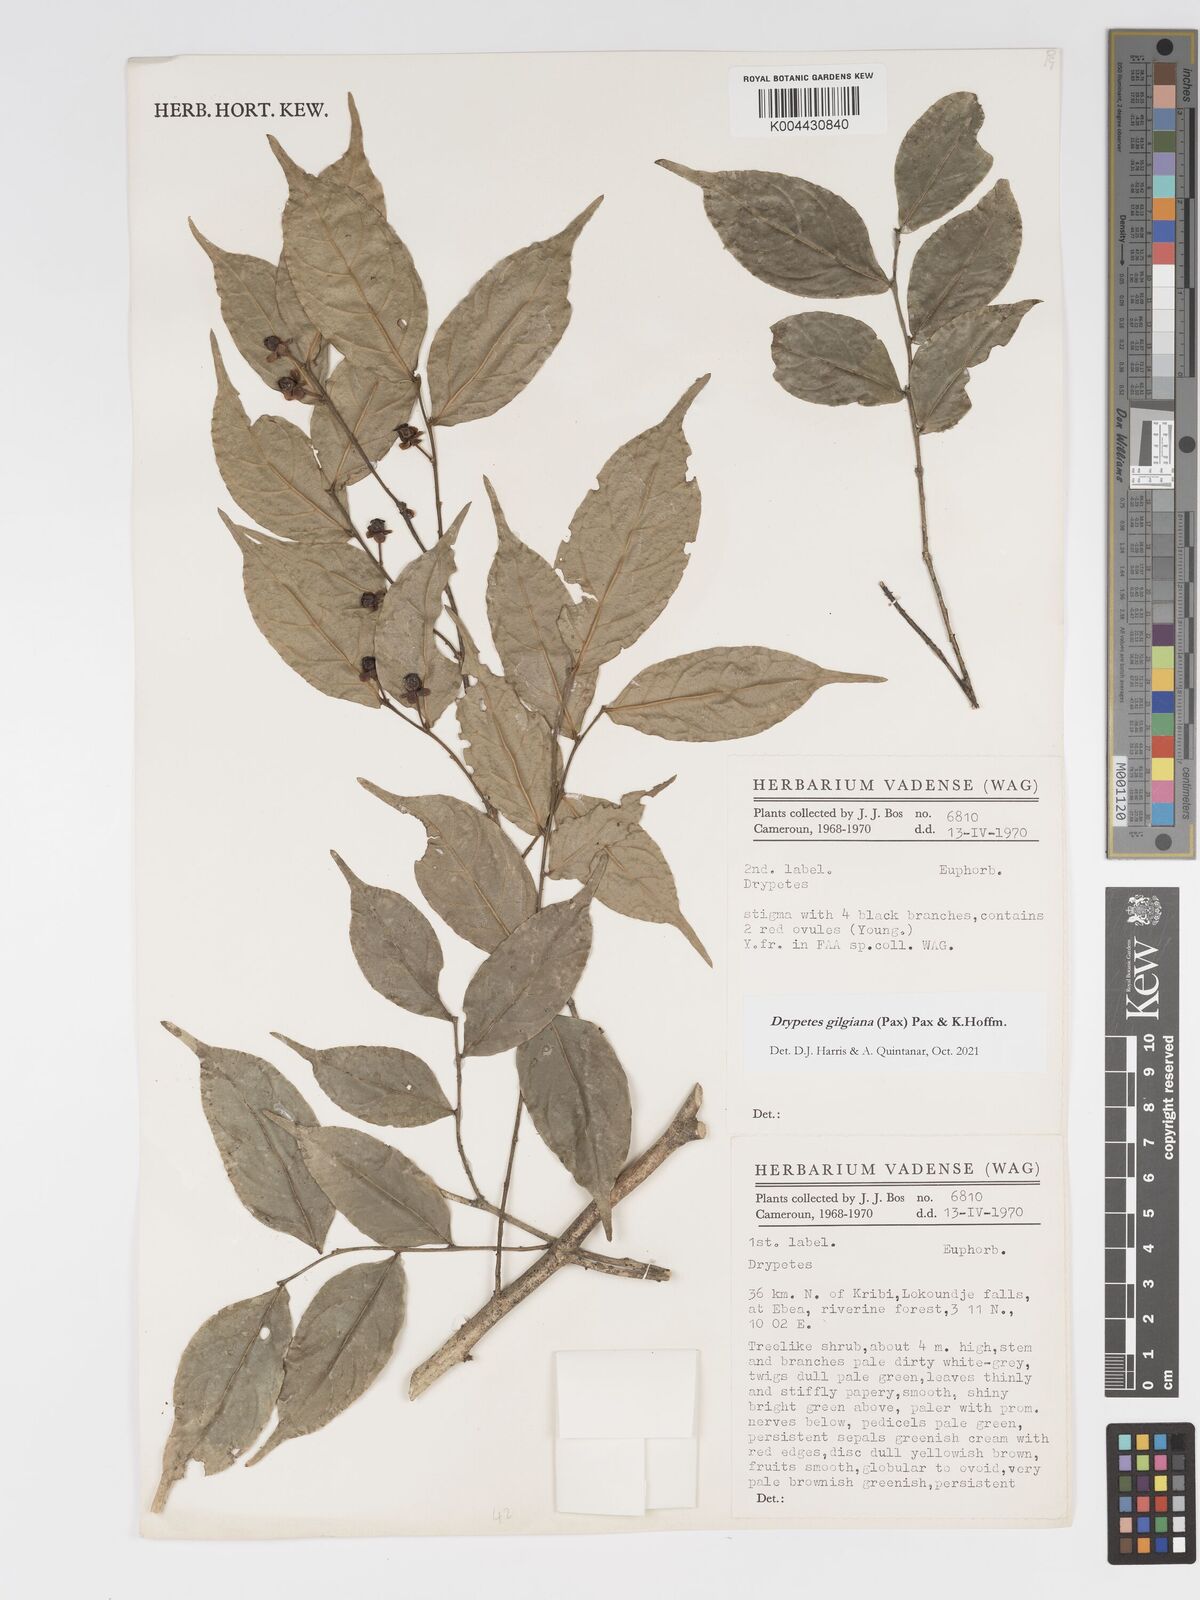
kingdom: Plantae
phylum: Tracheophyta
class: Magnoliopsida
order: Malpighiales
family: Putranjivaceae
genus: Drypetes
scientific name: Drypetes gilgiana
